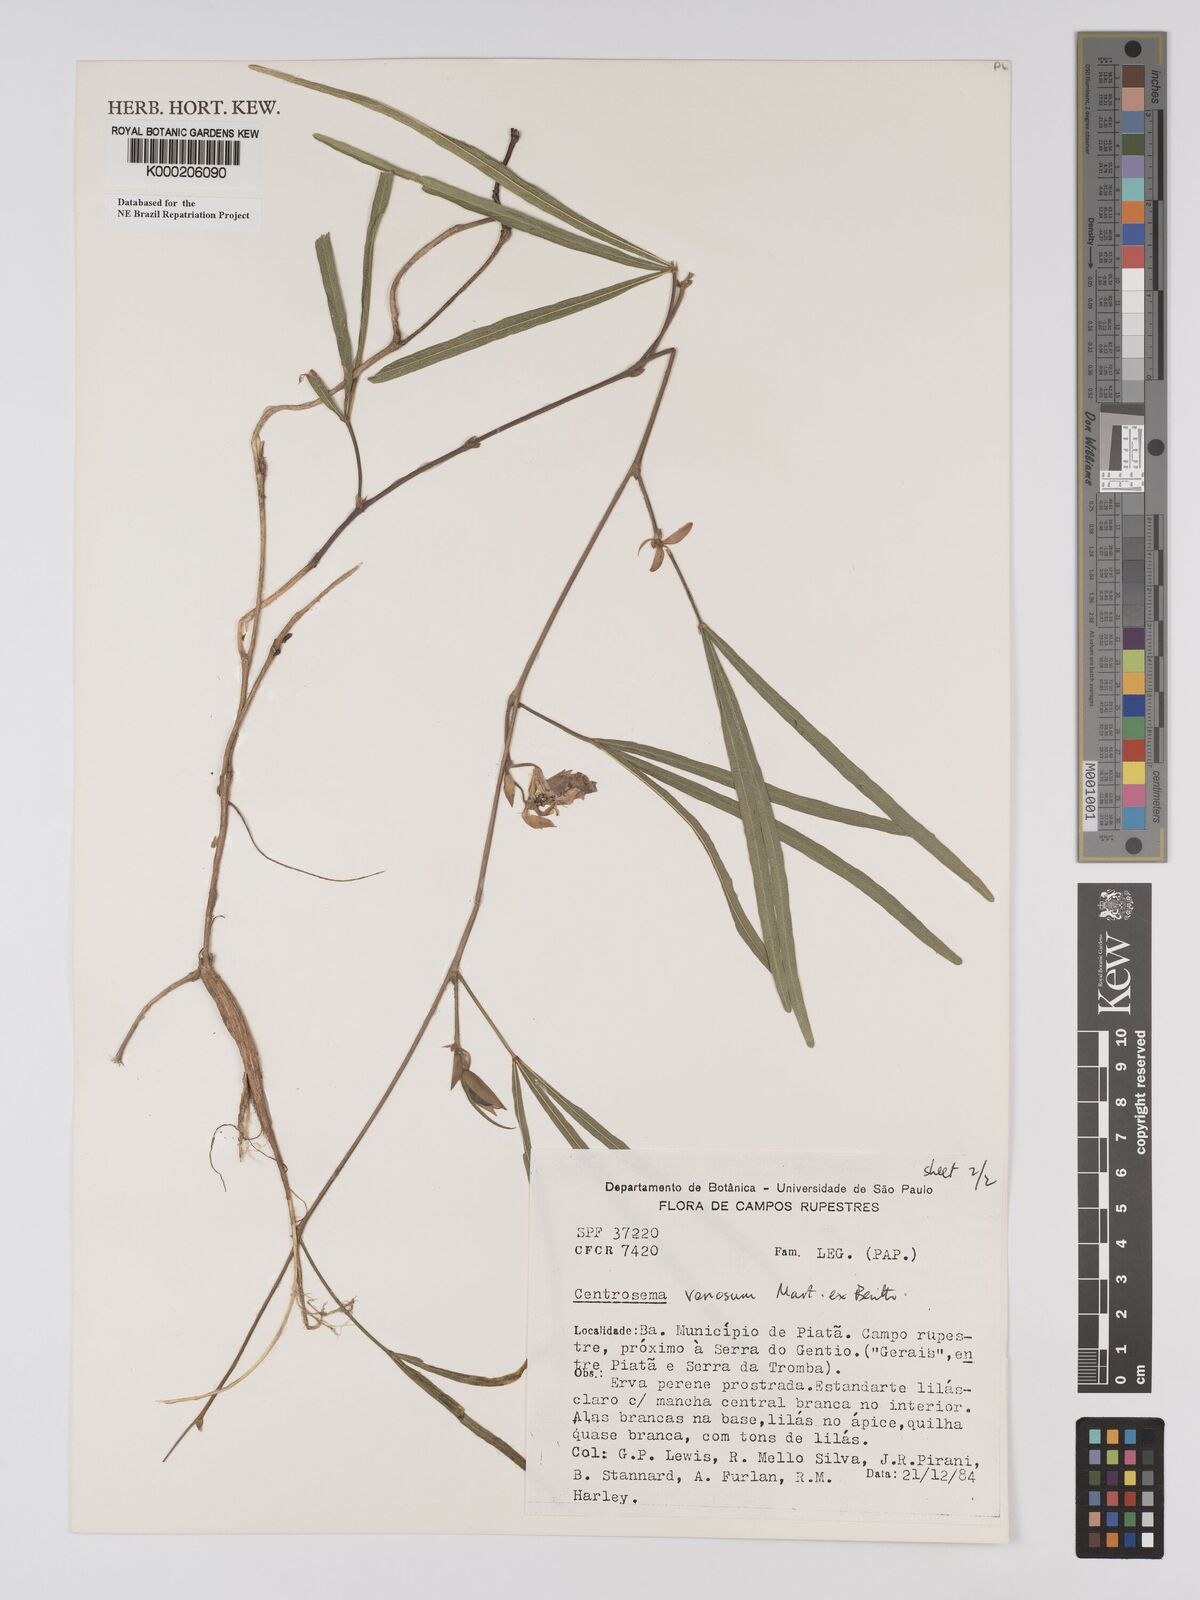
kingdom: Plantae
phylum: Tracheophyta
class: Magnoliopsida
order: Fabales
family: Fabaceae
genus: Centrosema
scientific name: Centrosema venosum
